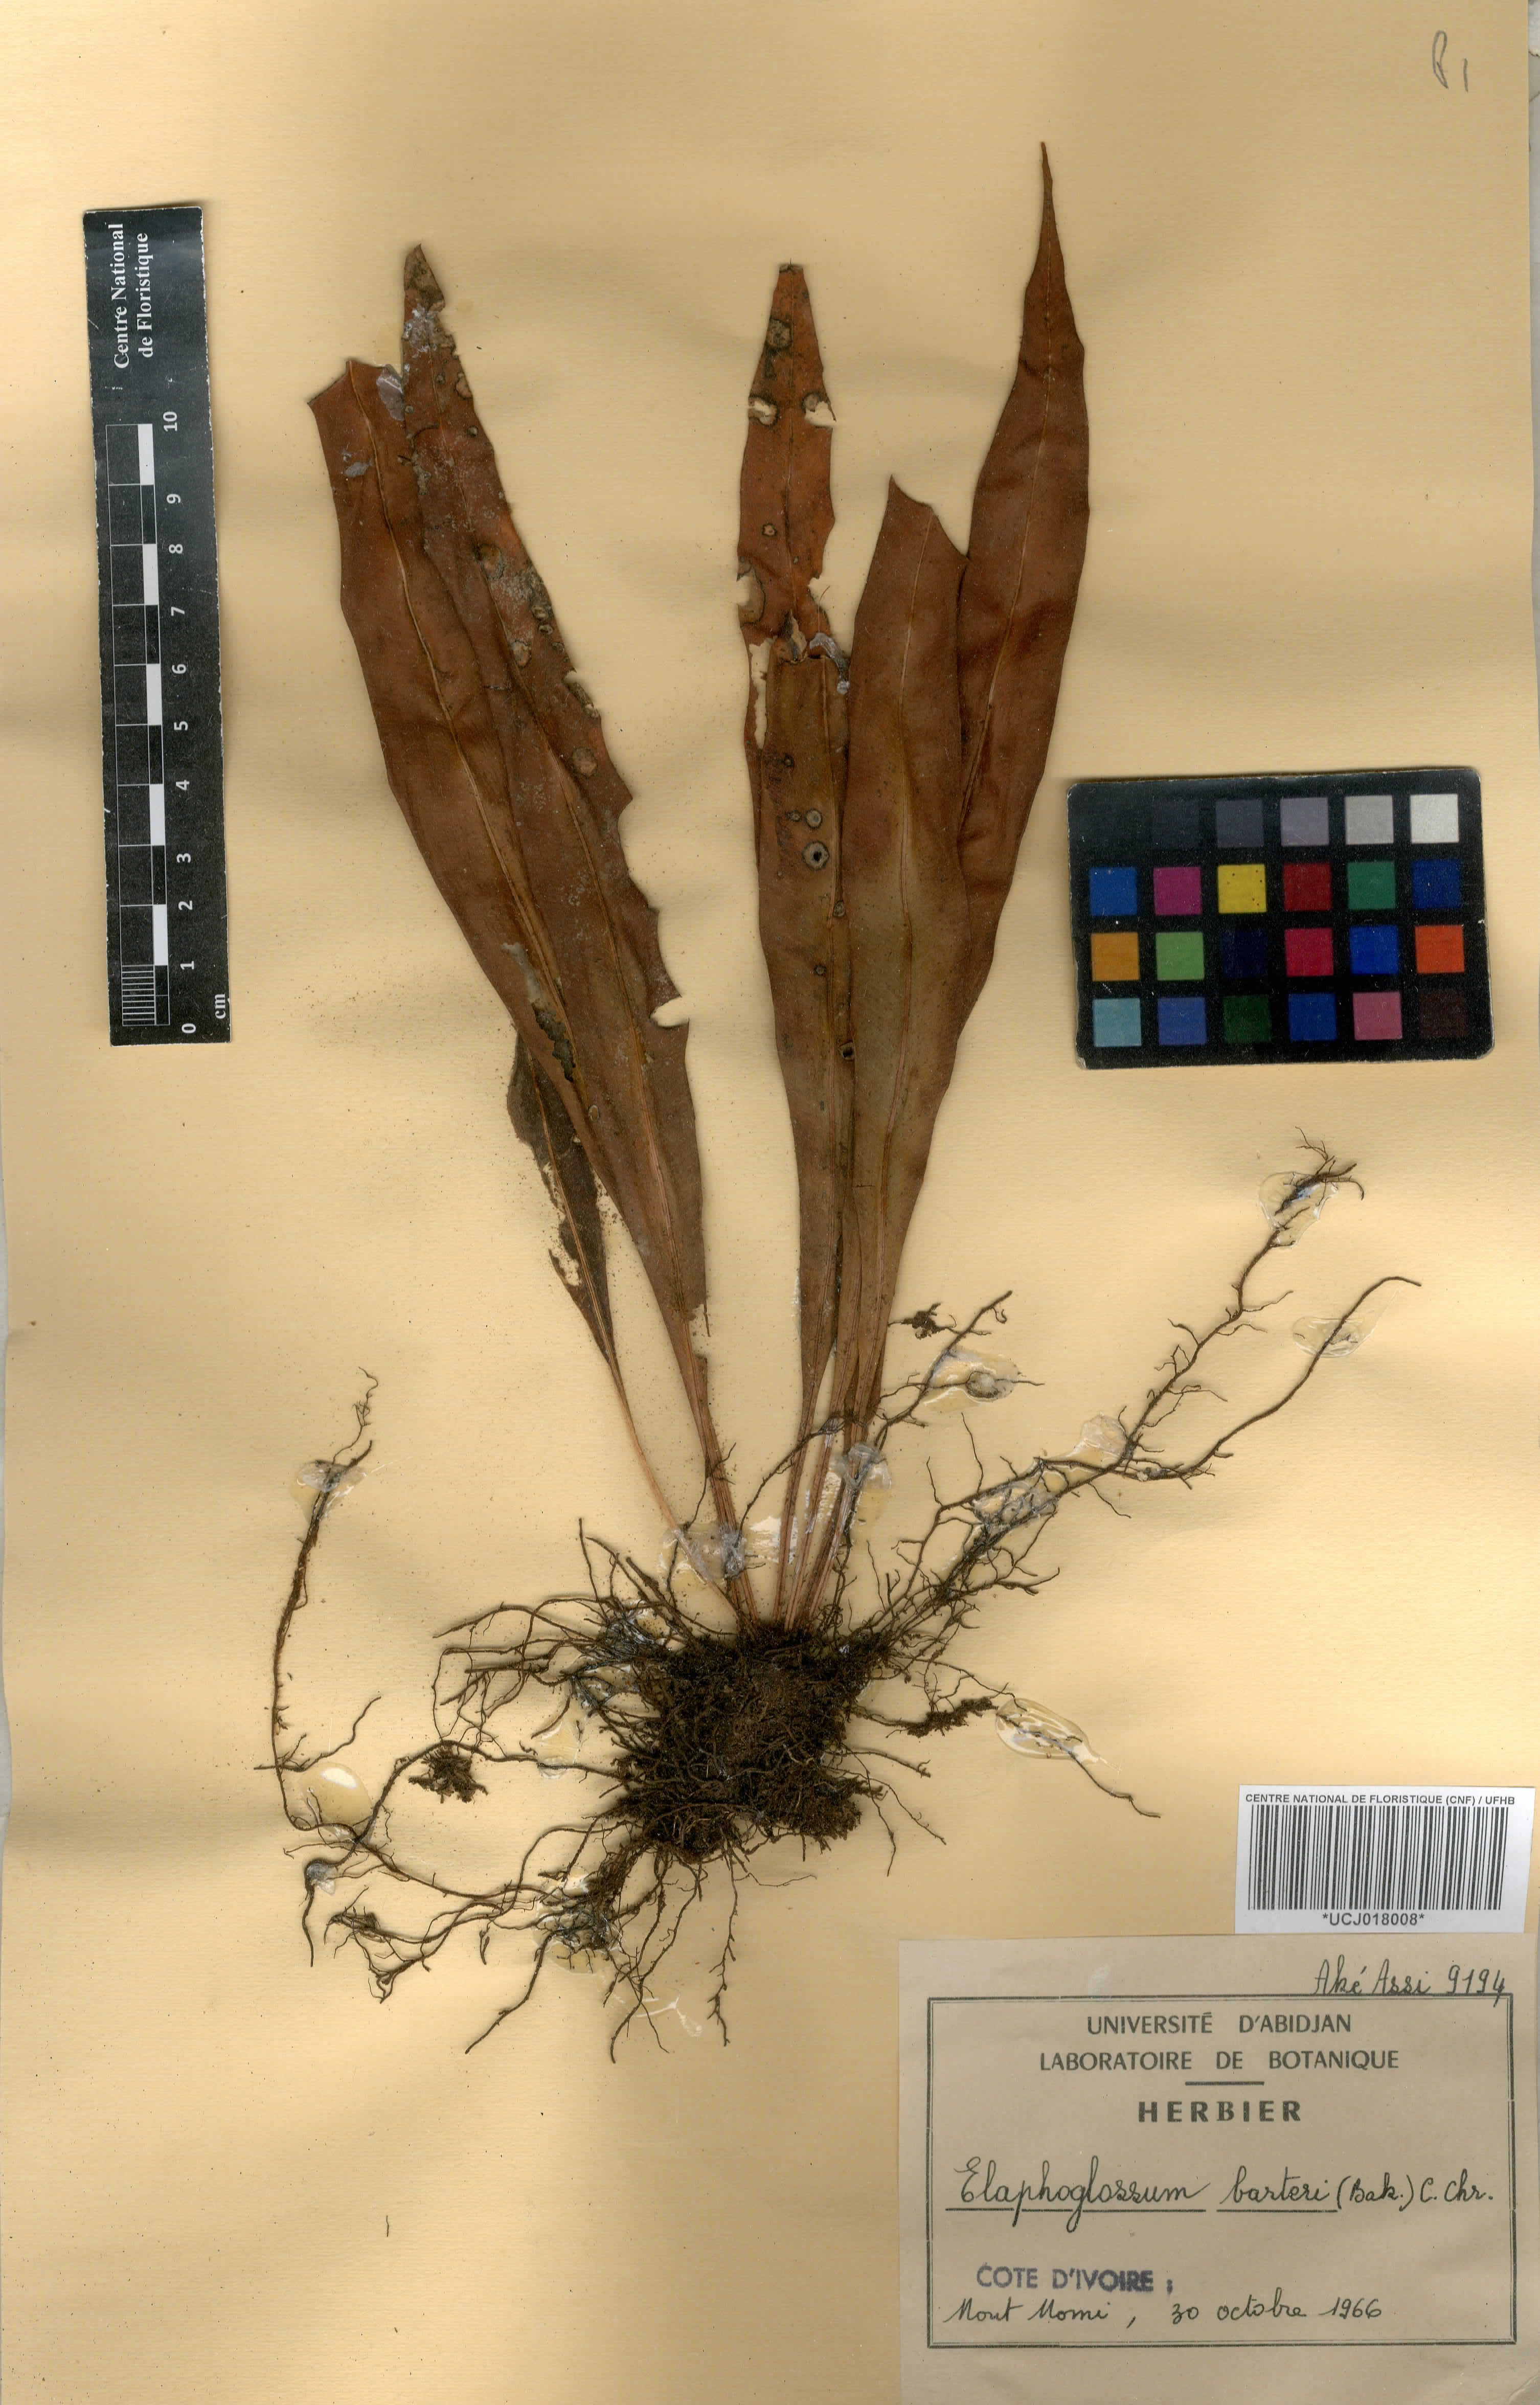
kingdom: Plantae
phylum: Tracheophyta
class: Polypodiopsida
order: Polypodiales
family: Dryopteridaceae
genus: Elaphoglossum
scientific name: Elaphoglossum barteri
